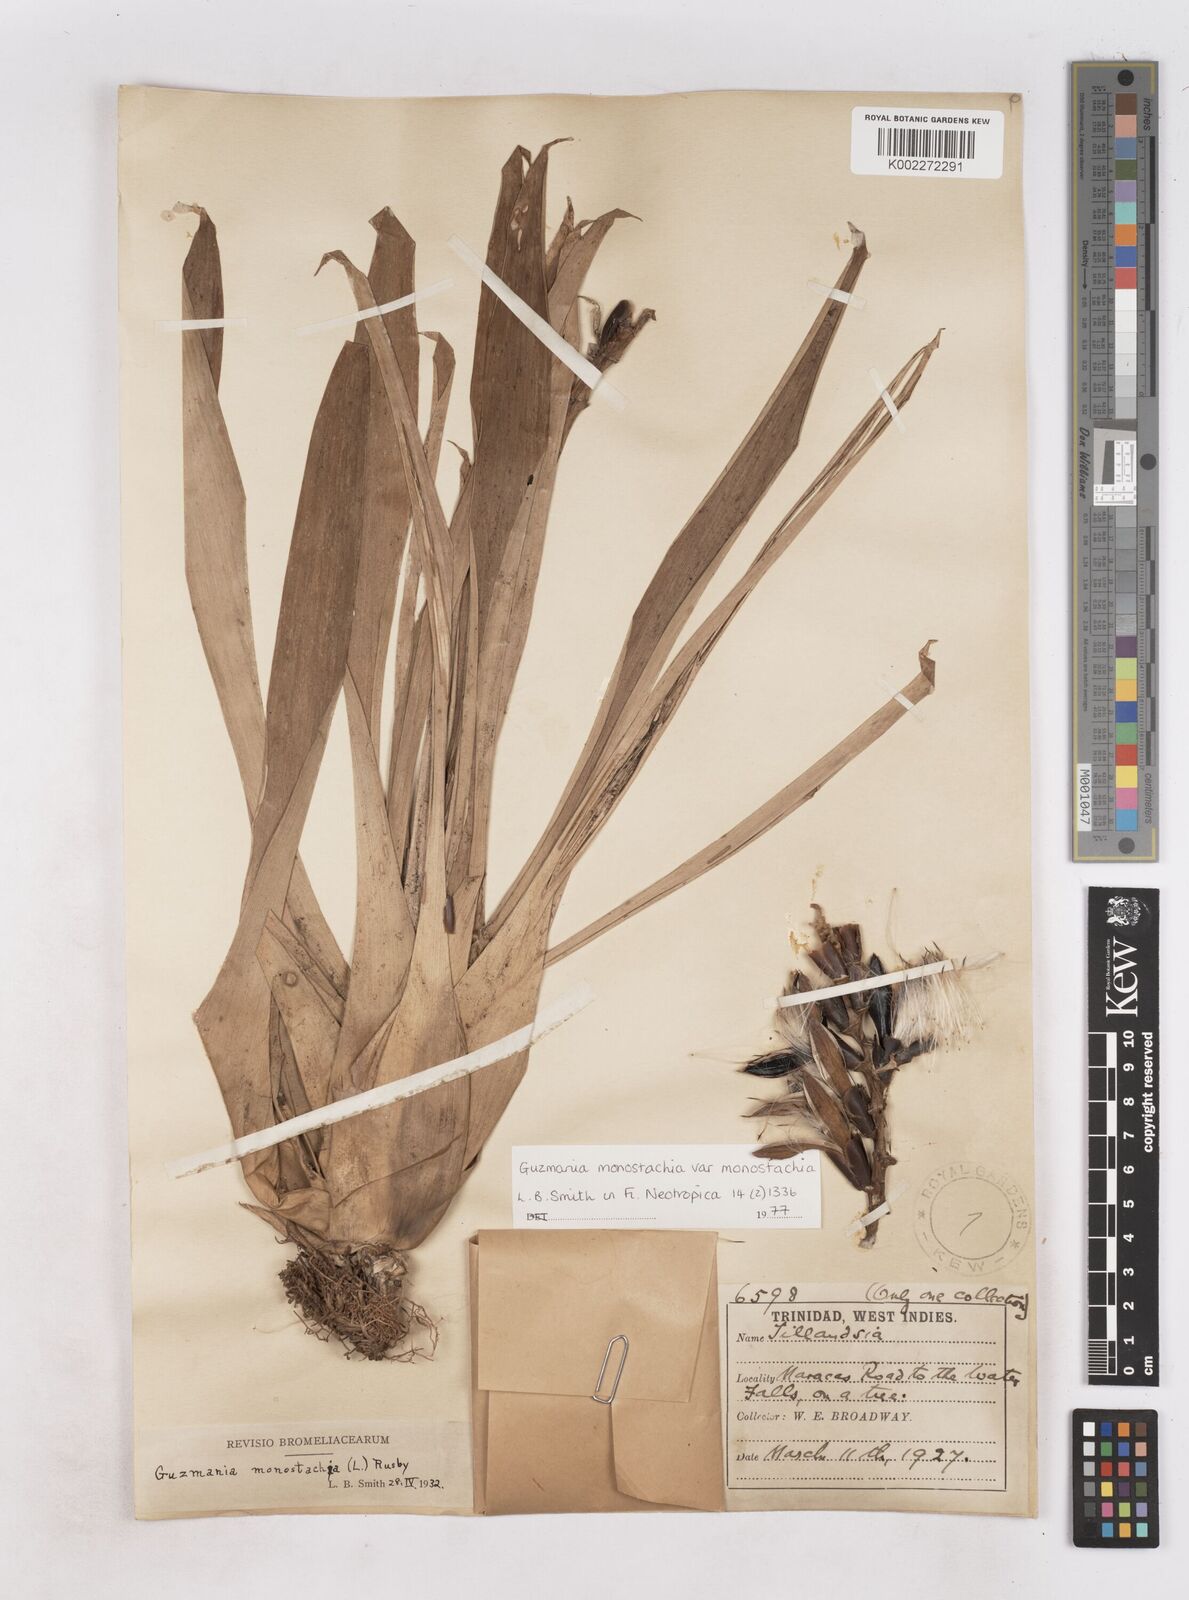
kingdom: Plantae
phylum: Tracheophyta
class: Liliopsida
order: Poales
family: Bromeliaceae
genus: Guzmania
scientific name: Guzmania monostachia
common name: West indian tufted airplant
